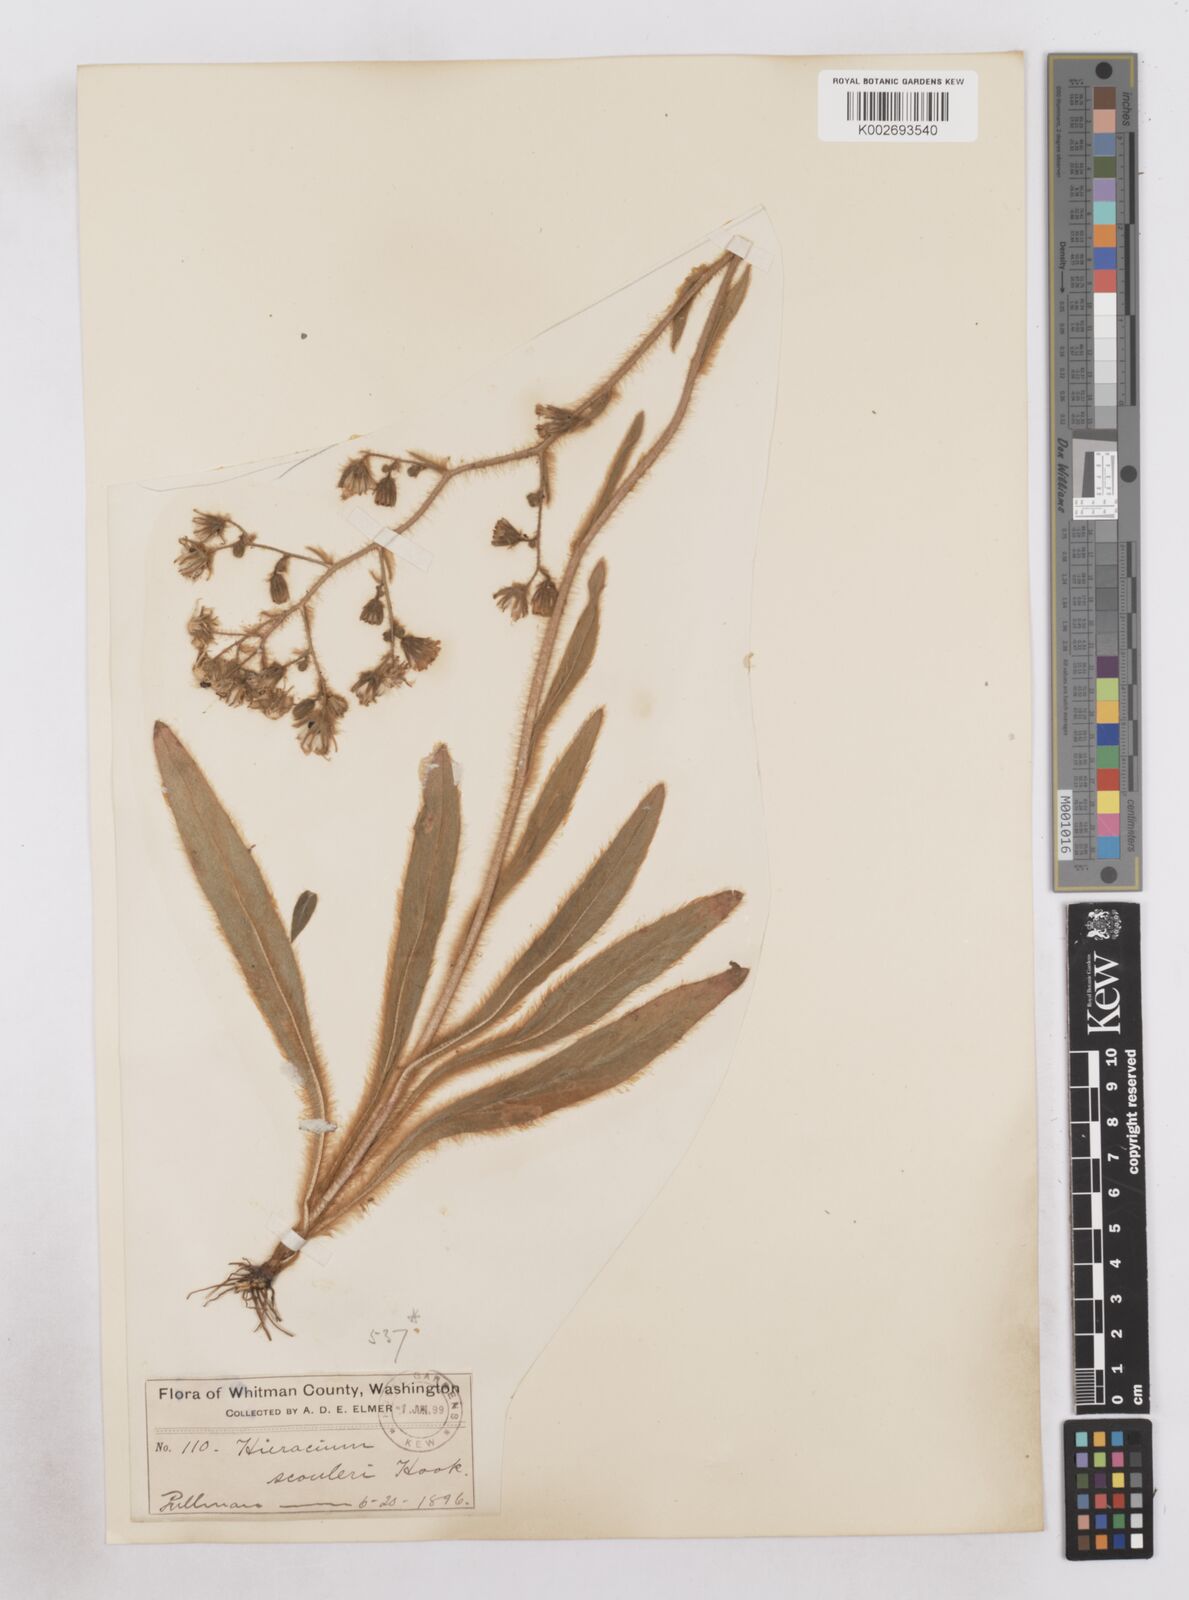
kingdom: Plantae
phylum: Tracheophyta
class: Magnoliopsida
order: Asterales
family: Asteraceae
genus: Hieracium
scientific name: Hieracium scouleri
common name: Hound's-tongue hawkweed
